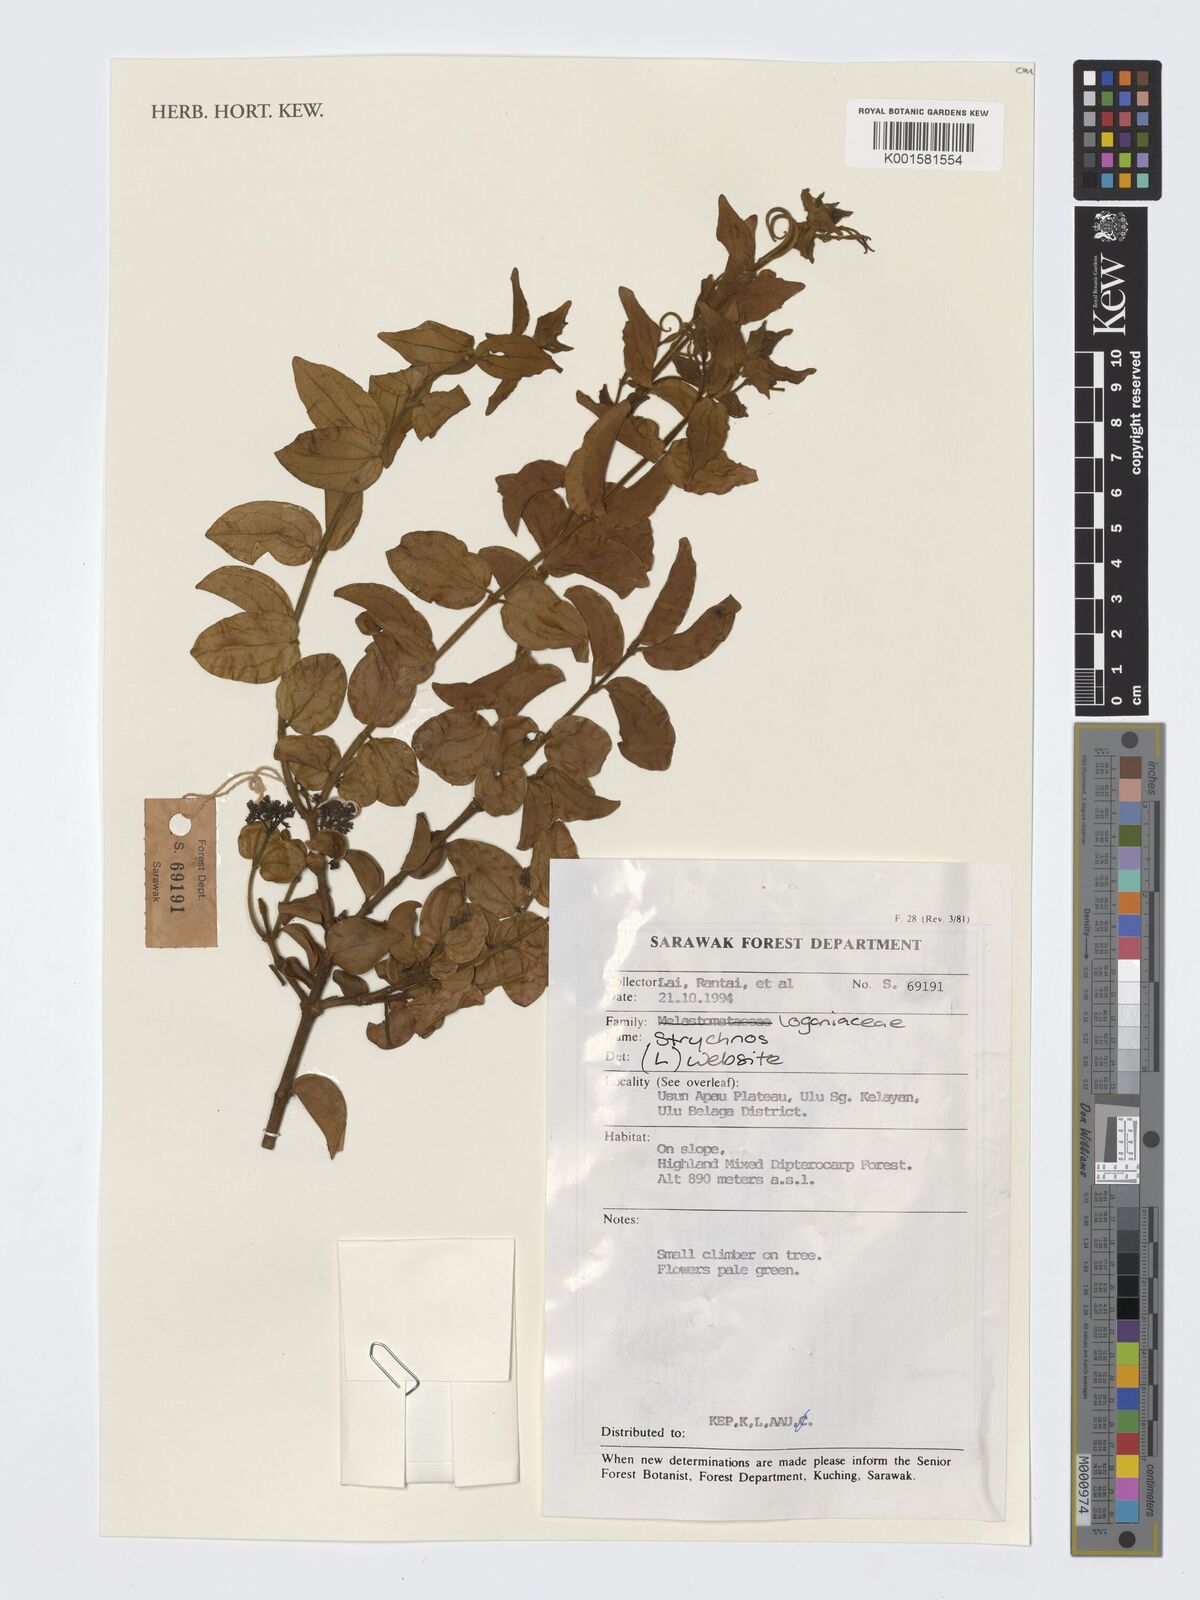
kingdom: Plantae
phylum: Tracheophyta
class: Magnoliopsida
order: Gentianales
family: Loganiaceae
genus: Strychnos
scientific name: Strychnos
